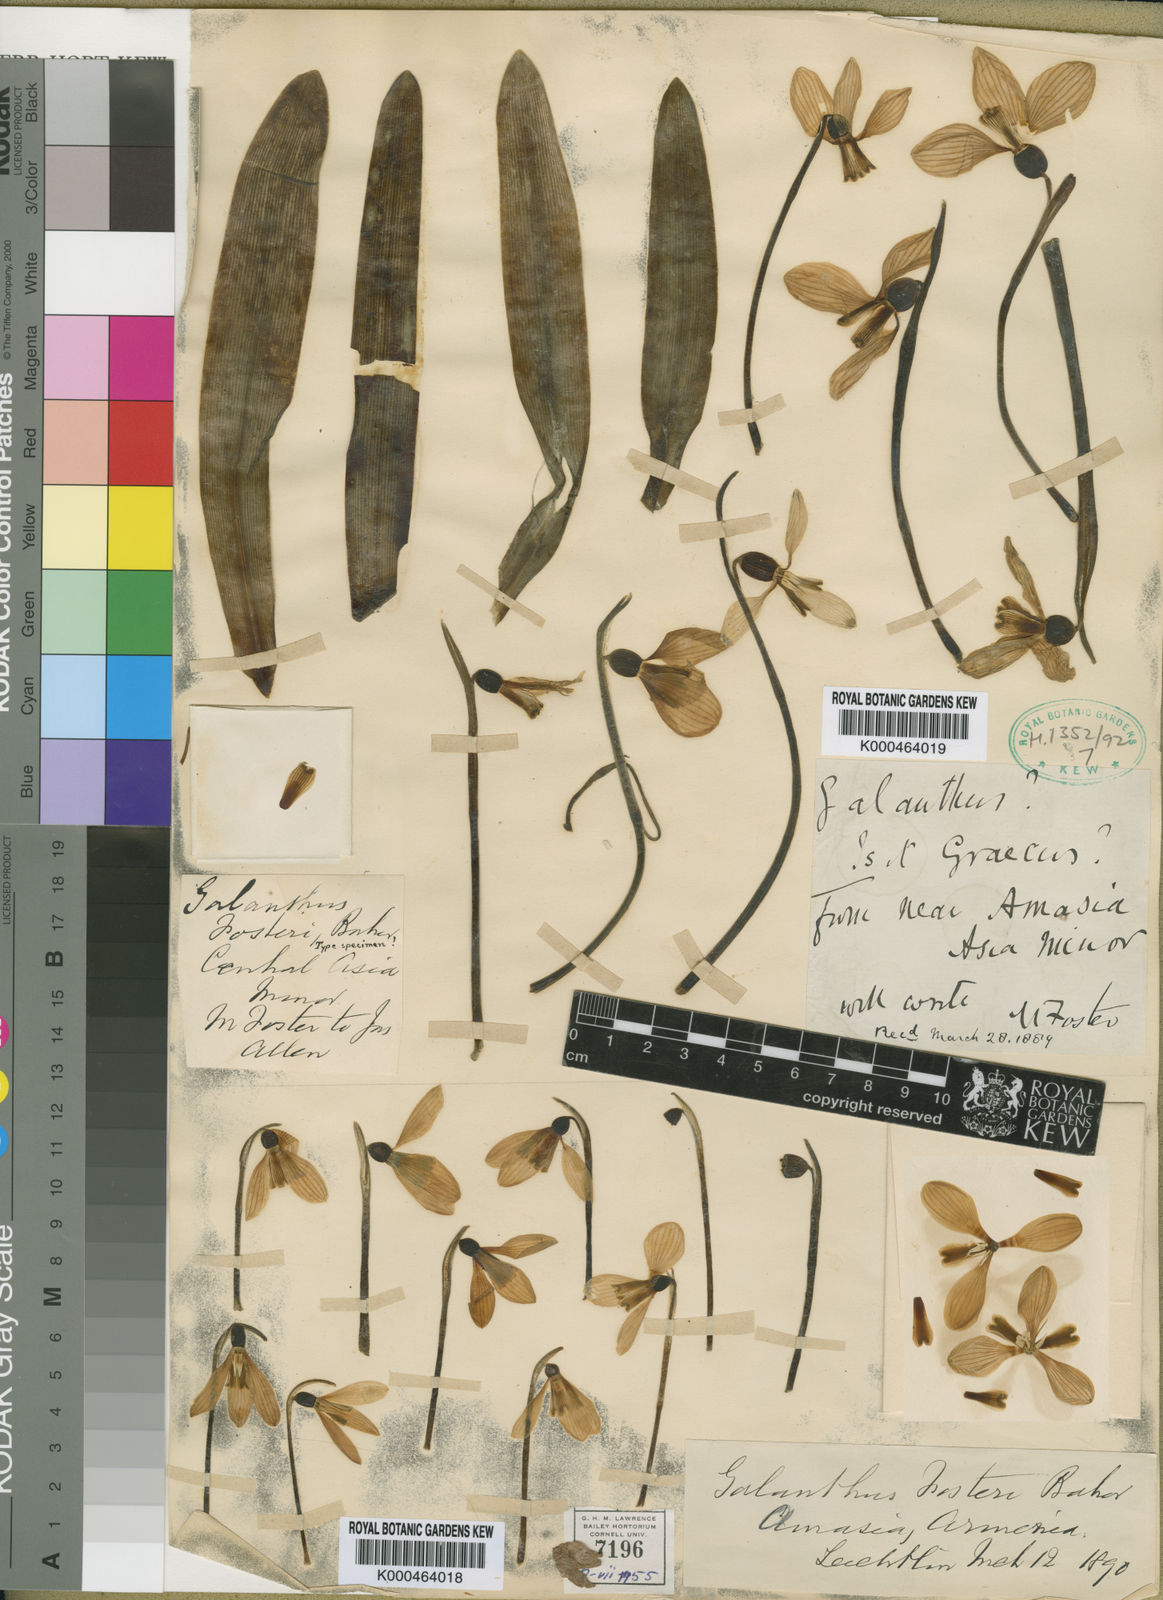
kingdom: Plantae
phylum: Tracheophyta
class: Liliopsida
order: Asparagales
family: Amaryllidaceae
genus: Galanthus
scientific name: Galanthus fosteri
